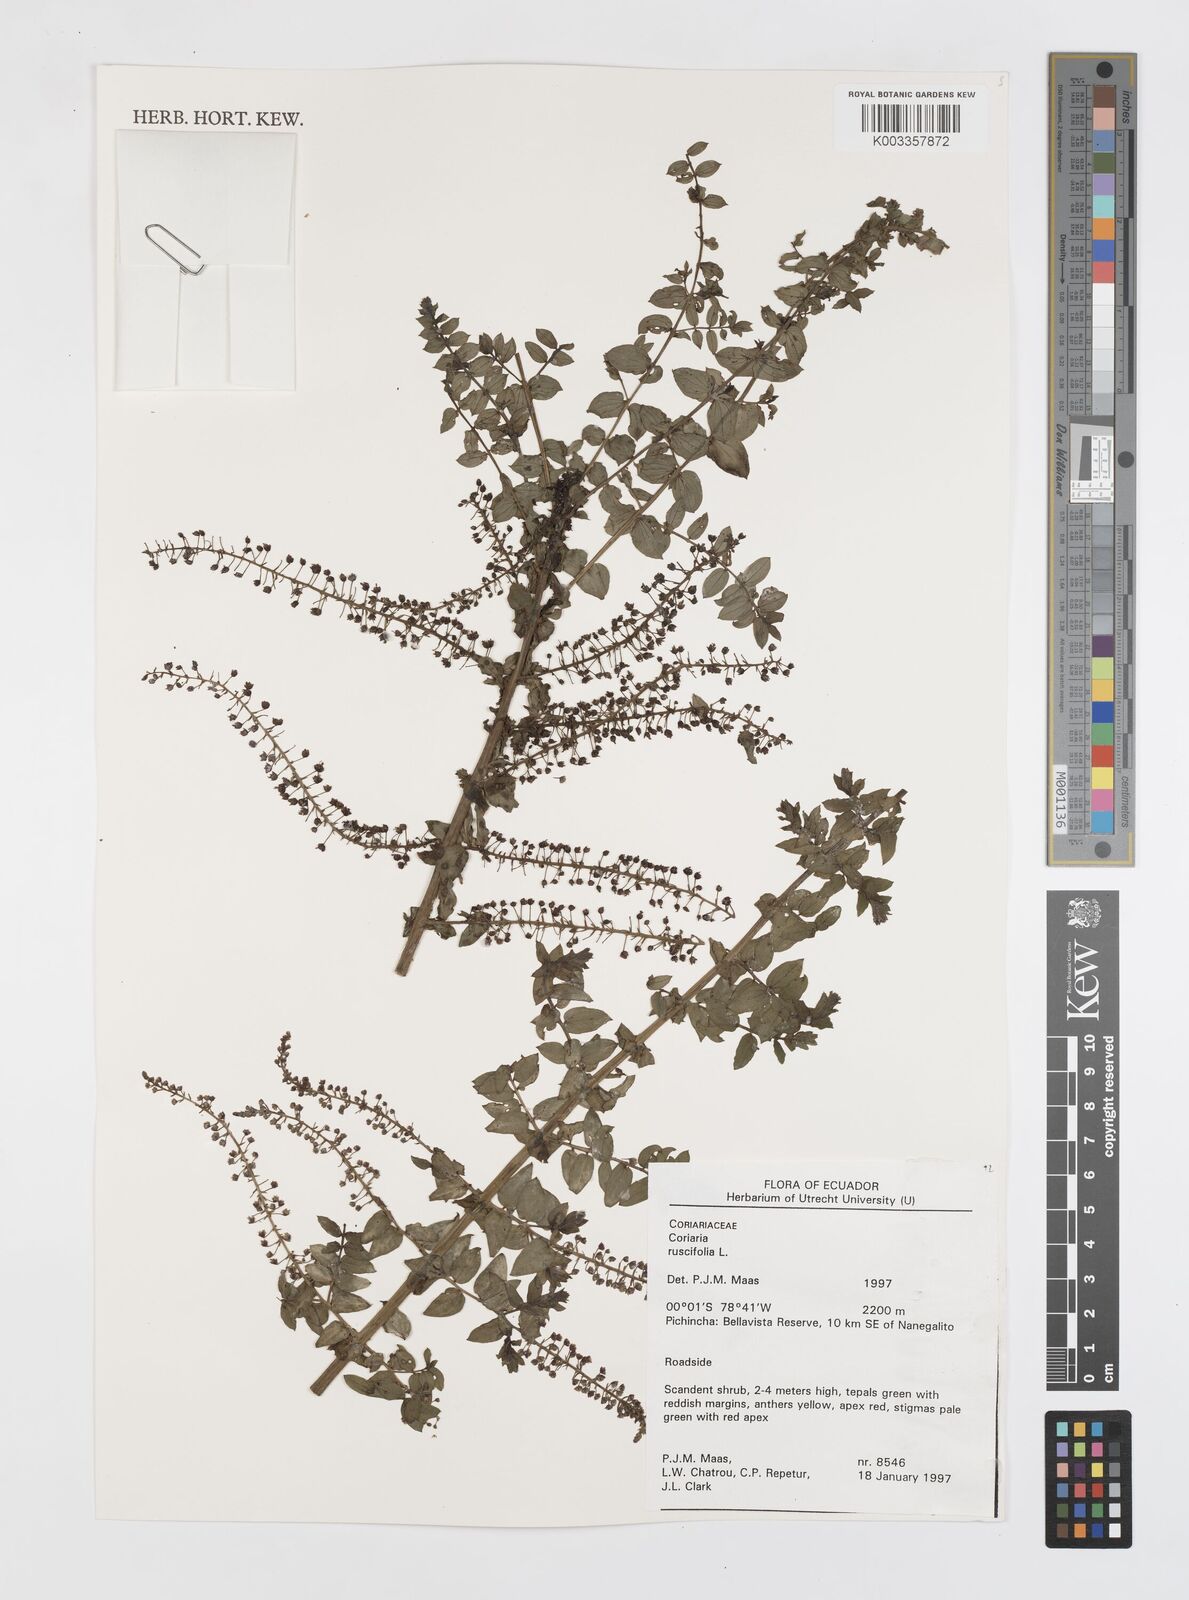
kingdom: Plantae
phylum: Tracheophyta
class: Magnoliopsida
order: Cucurbitales
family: Coriariaceae
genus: Coriaria
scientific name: Coriaria microphylla
